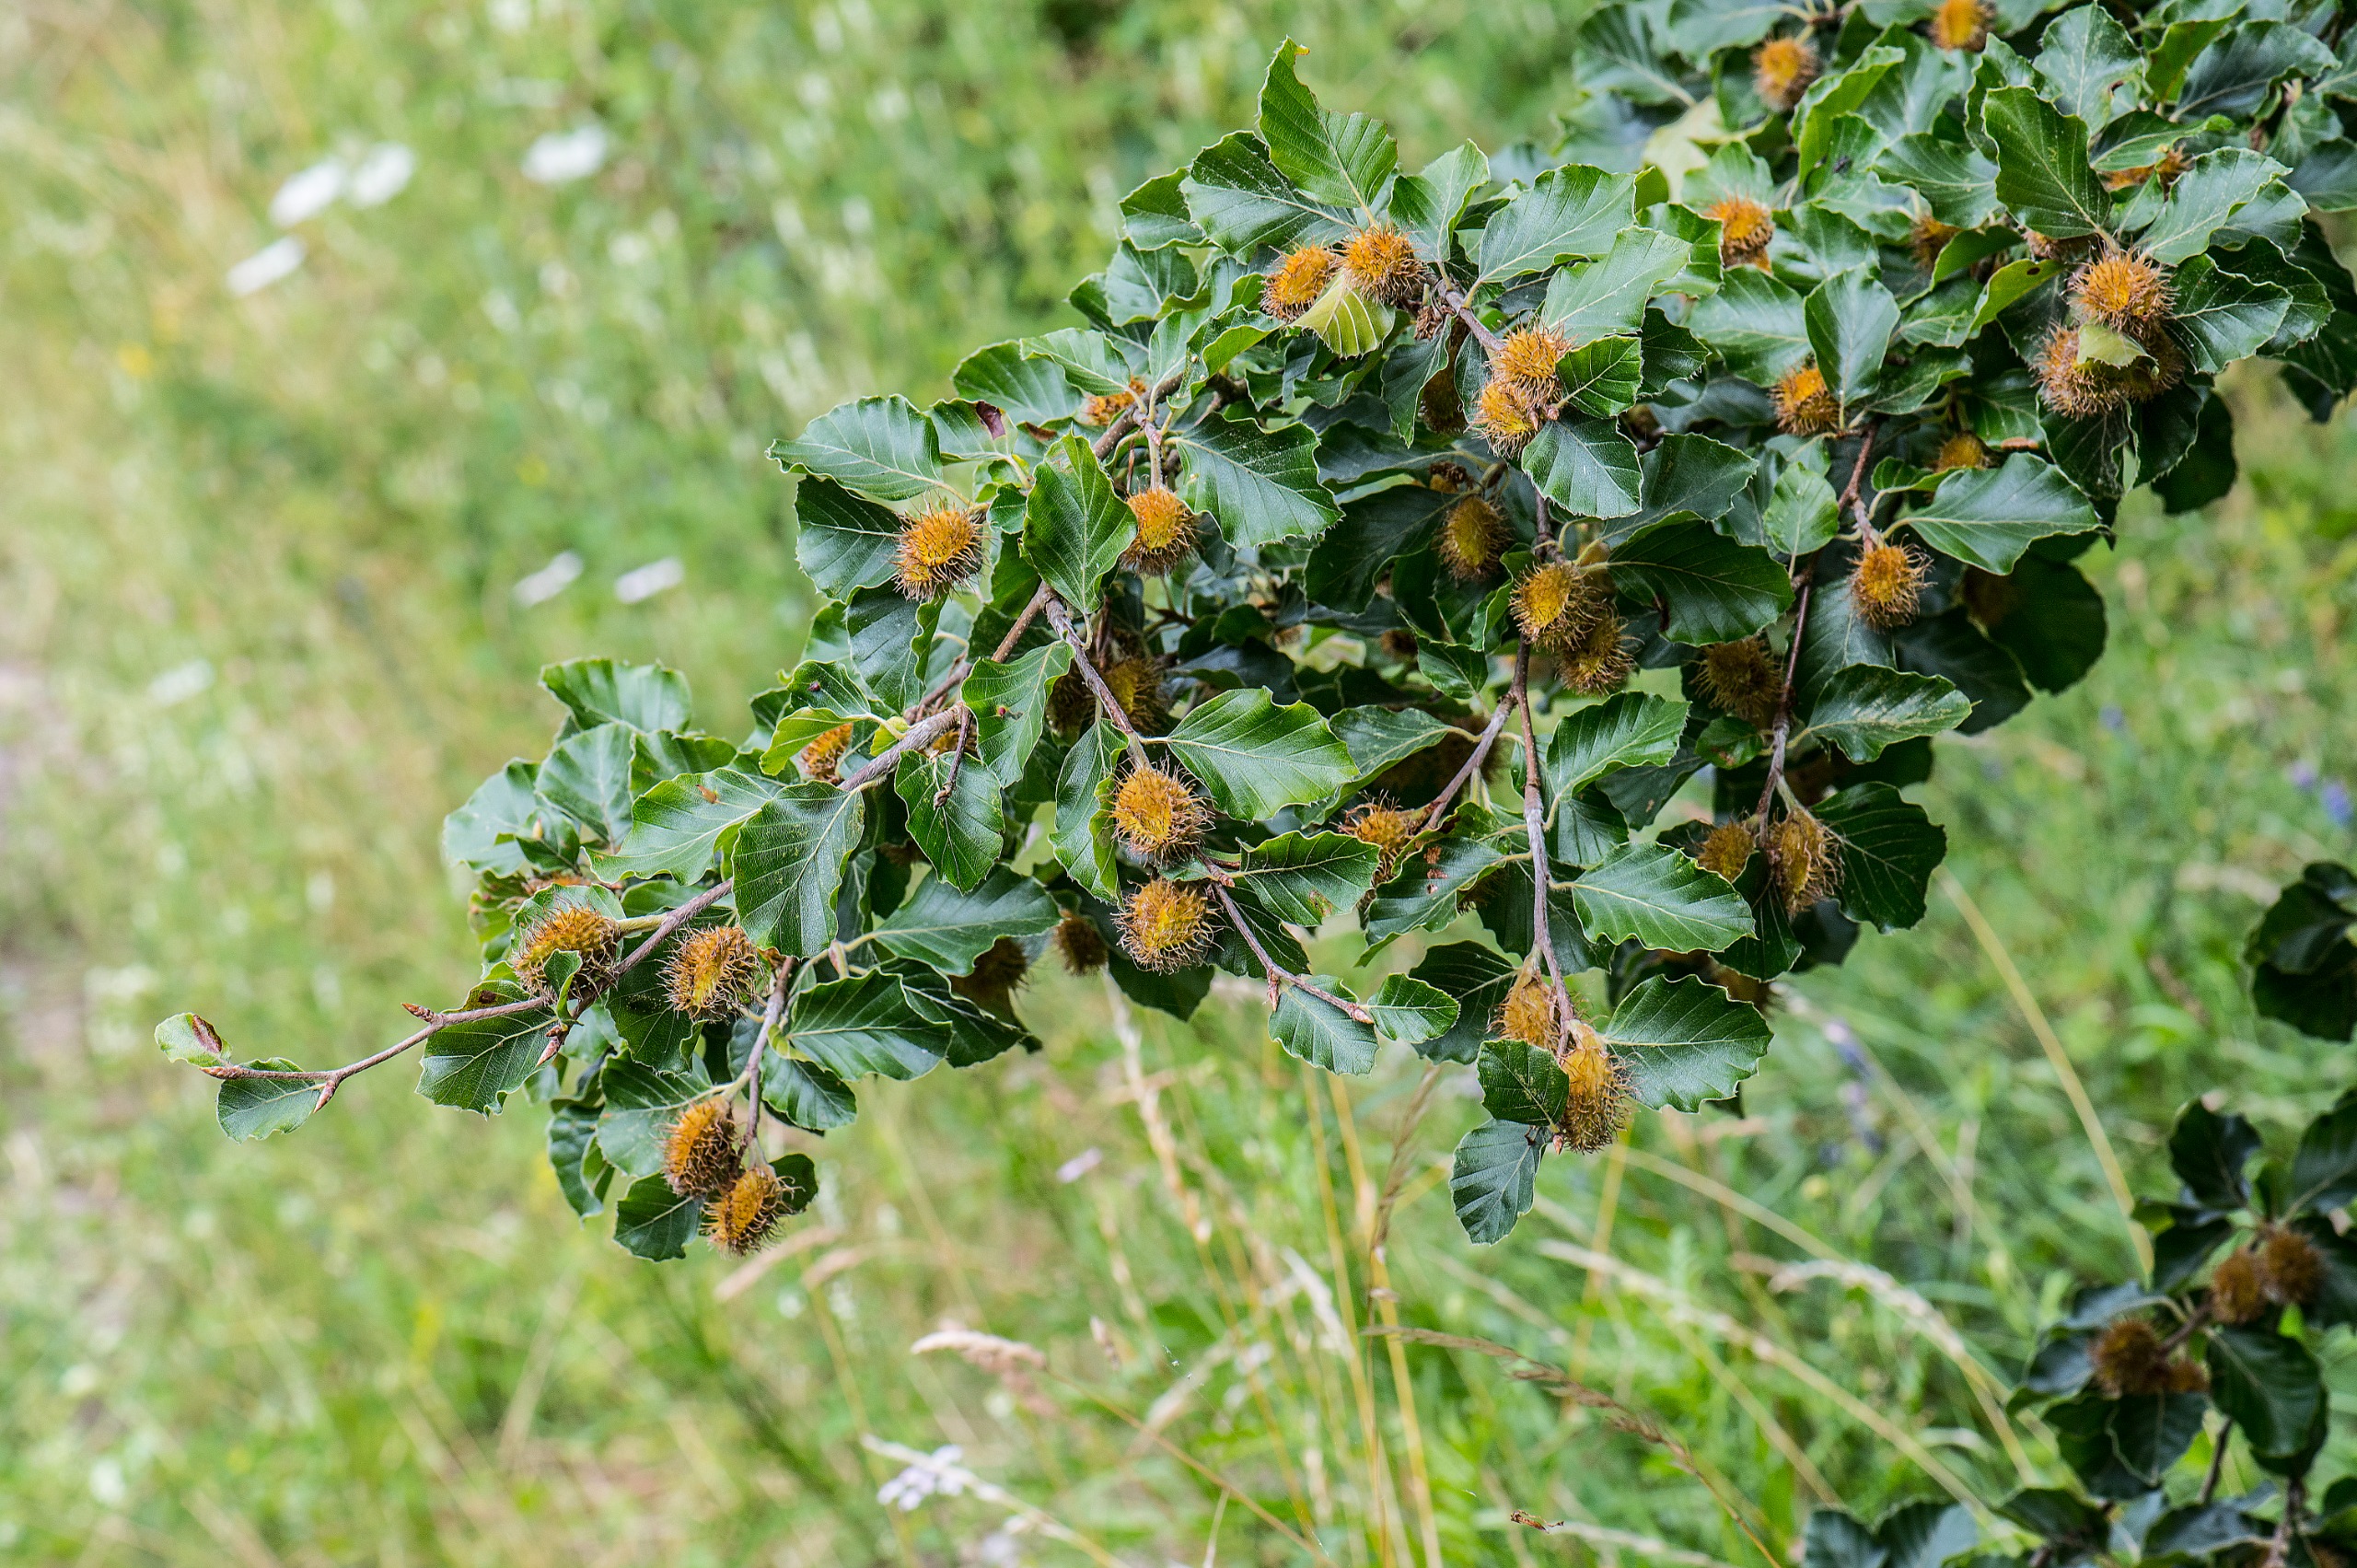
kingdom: Plantae
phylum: Tracheophyta
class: Magnoliopsida
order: Fagales
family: Fagaceae
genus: Fagus
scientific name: Fagus sylvatica
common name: Bøg
